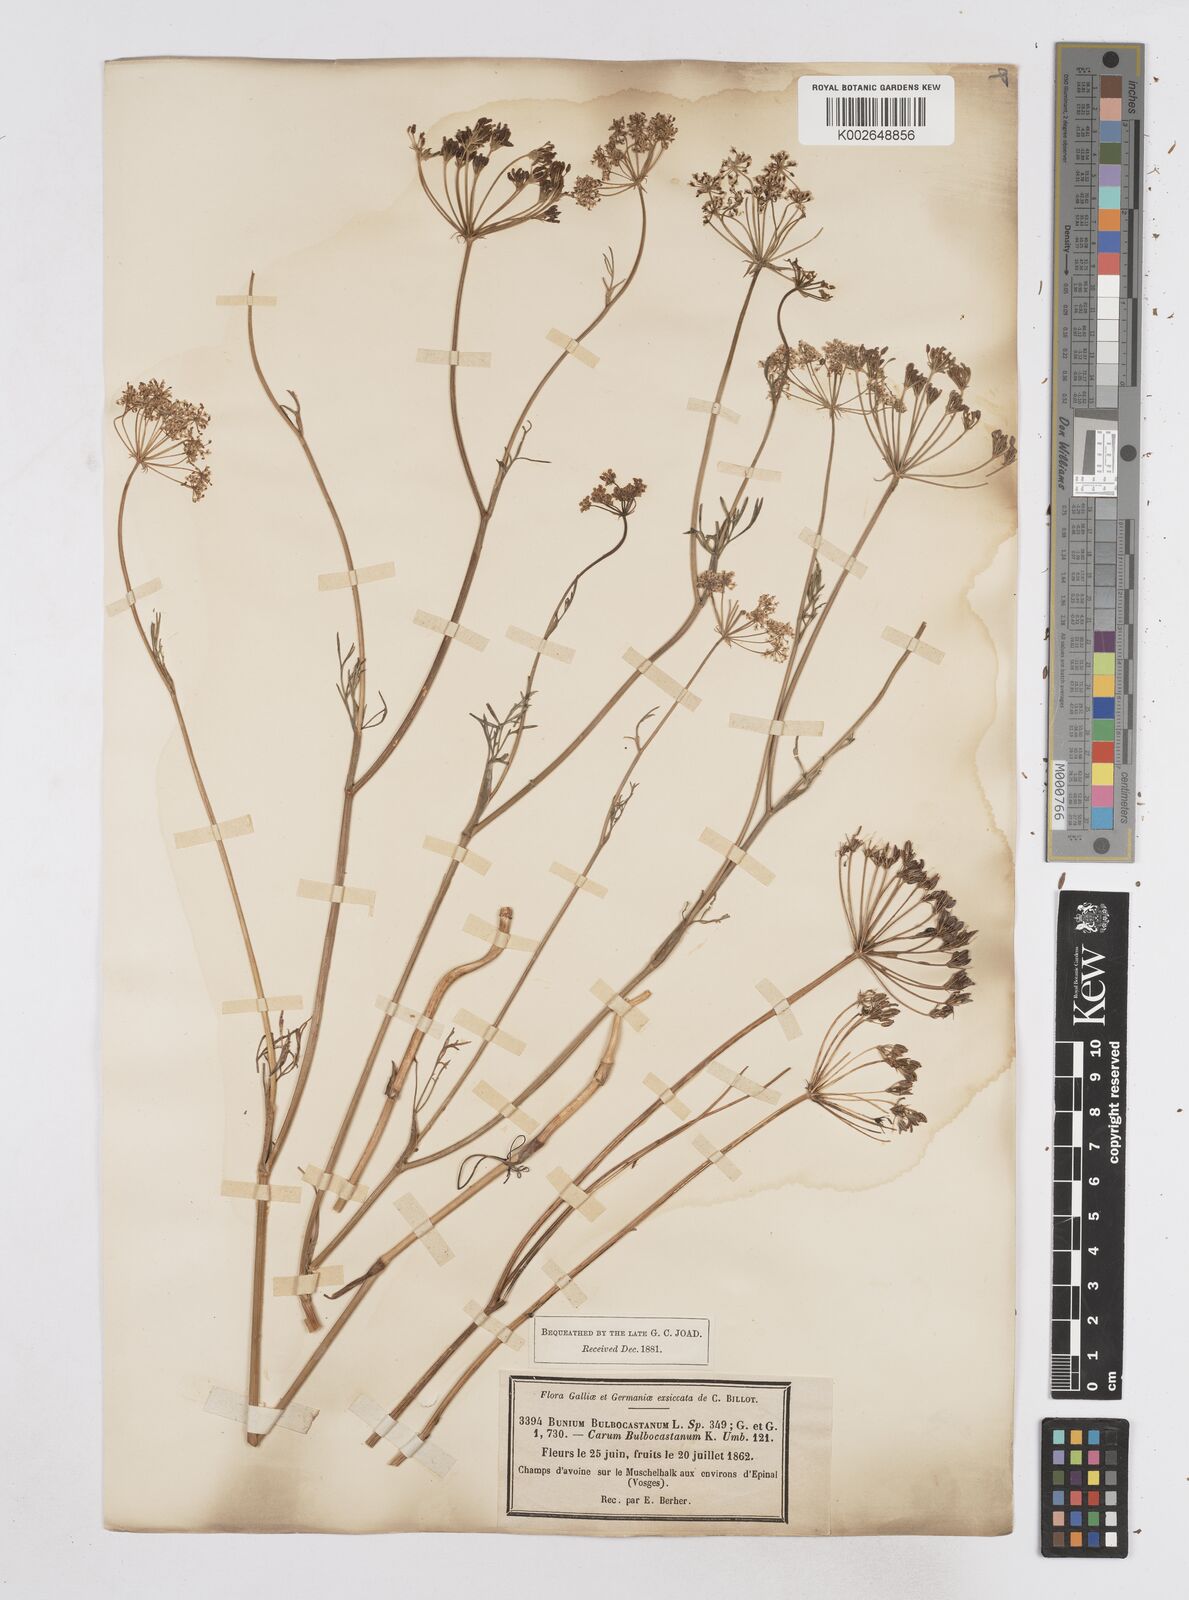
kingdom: Plantae
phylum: Tracheophyta
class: Magnoliopsida
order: Apiales
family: Apiaceae
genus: Bunium
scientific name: Bunium bulbocastanum
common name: Great pignut
